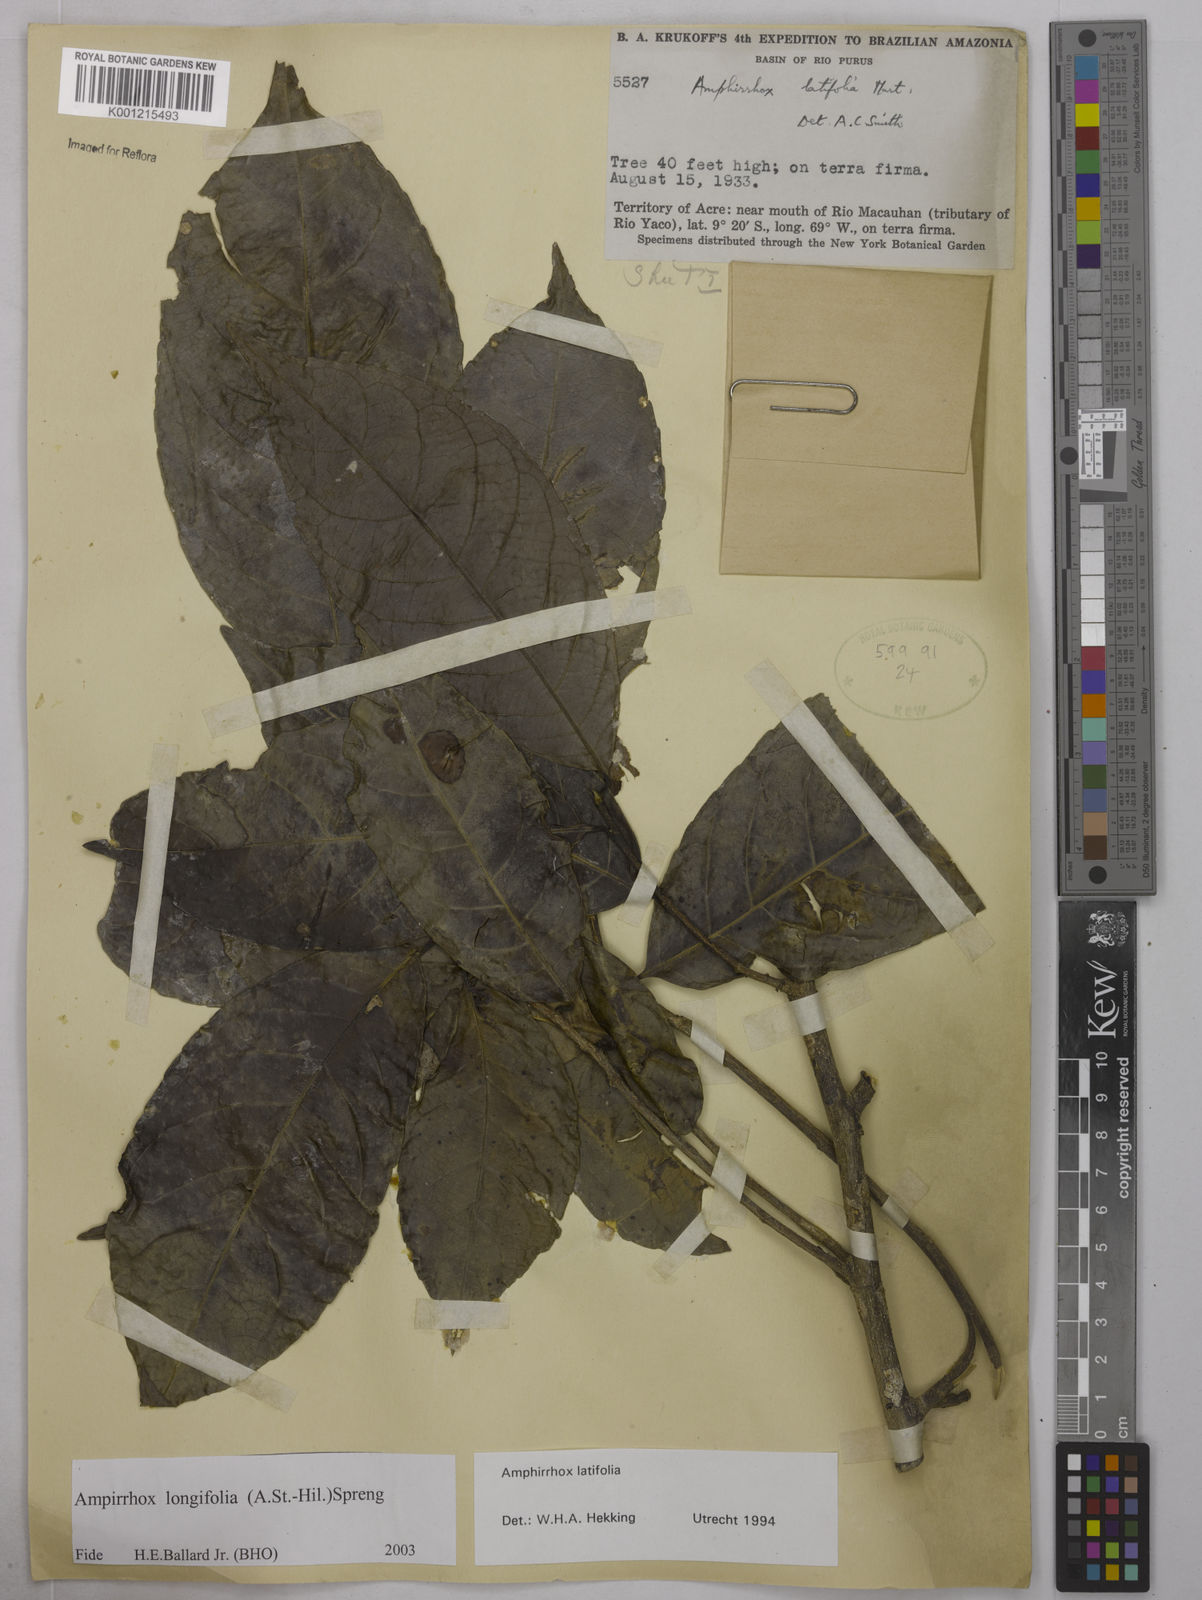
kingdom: Plantae
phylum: Tracheophyta
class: Magnoliopsida
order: Malpighiales
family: Violaceae
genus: Amphirrhox
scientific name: Amphirrhox longifolia
